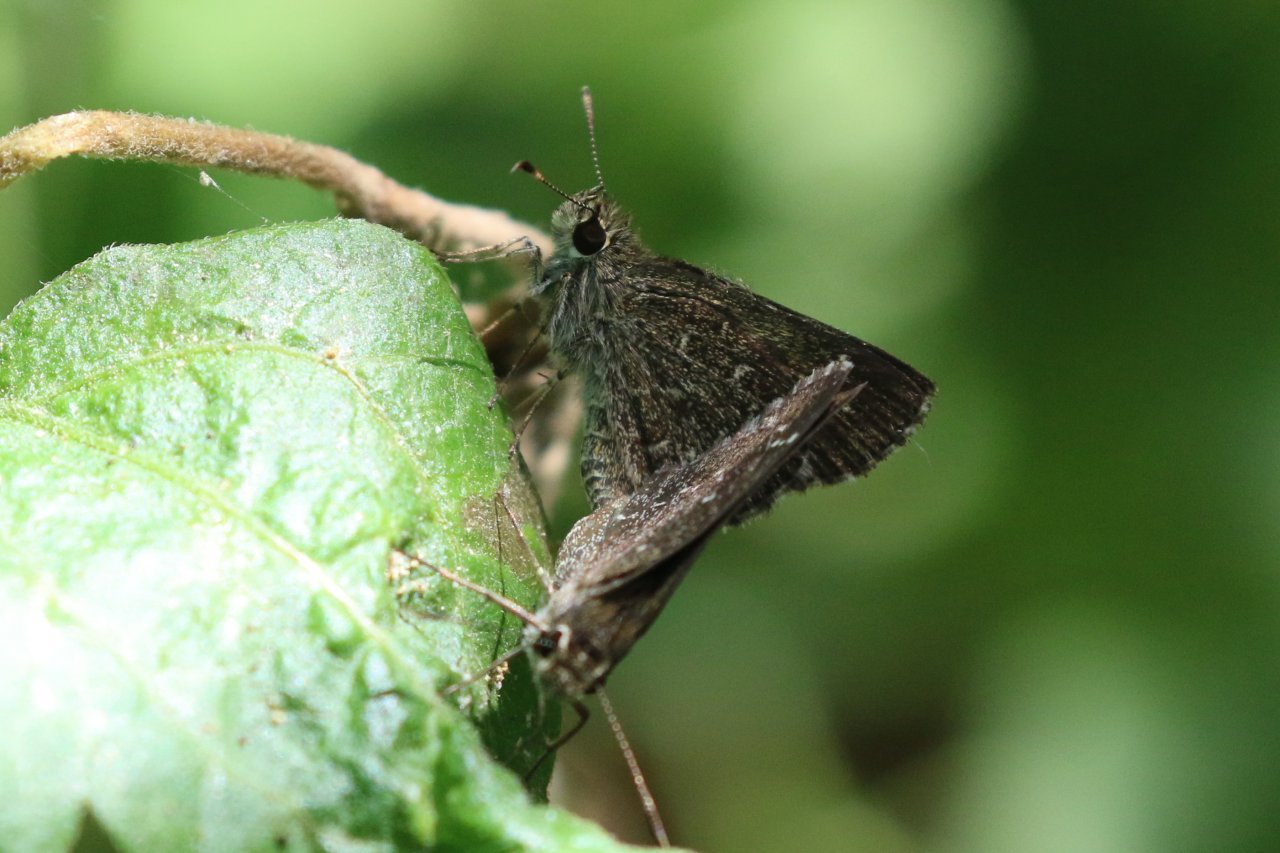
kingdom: Animalia
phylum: Arthropoda
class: Insecta
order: Lepidoptera
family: Hesperiidae
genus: Mastor
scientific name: Mastor celia
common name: Celia's Roadside-Skipper
